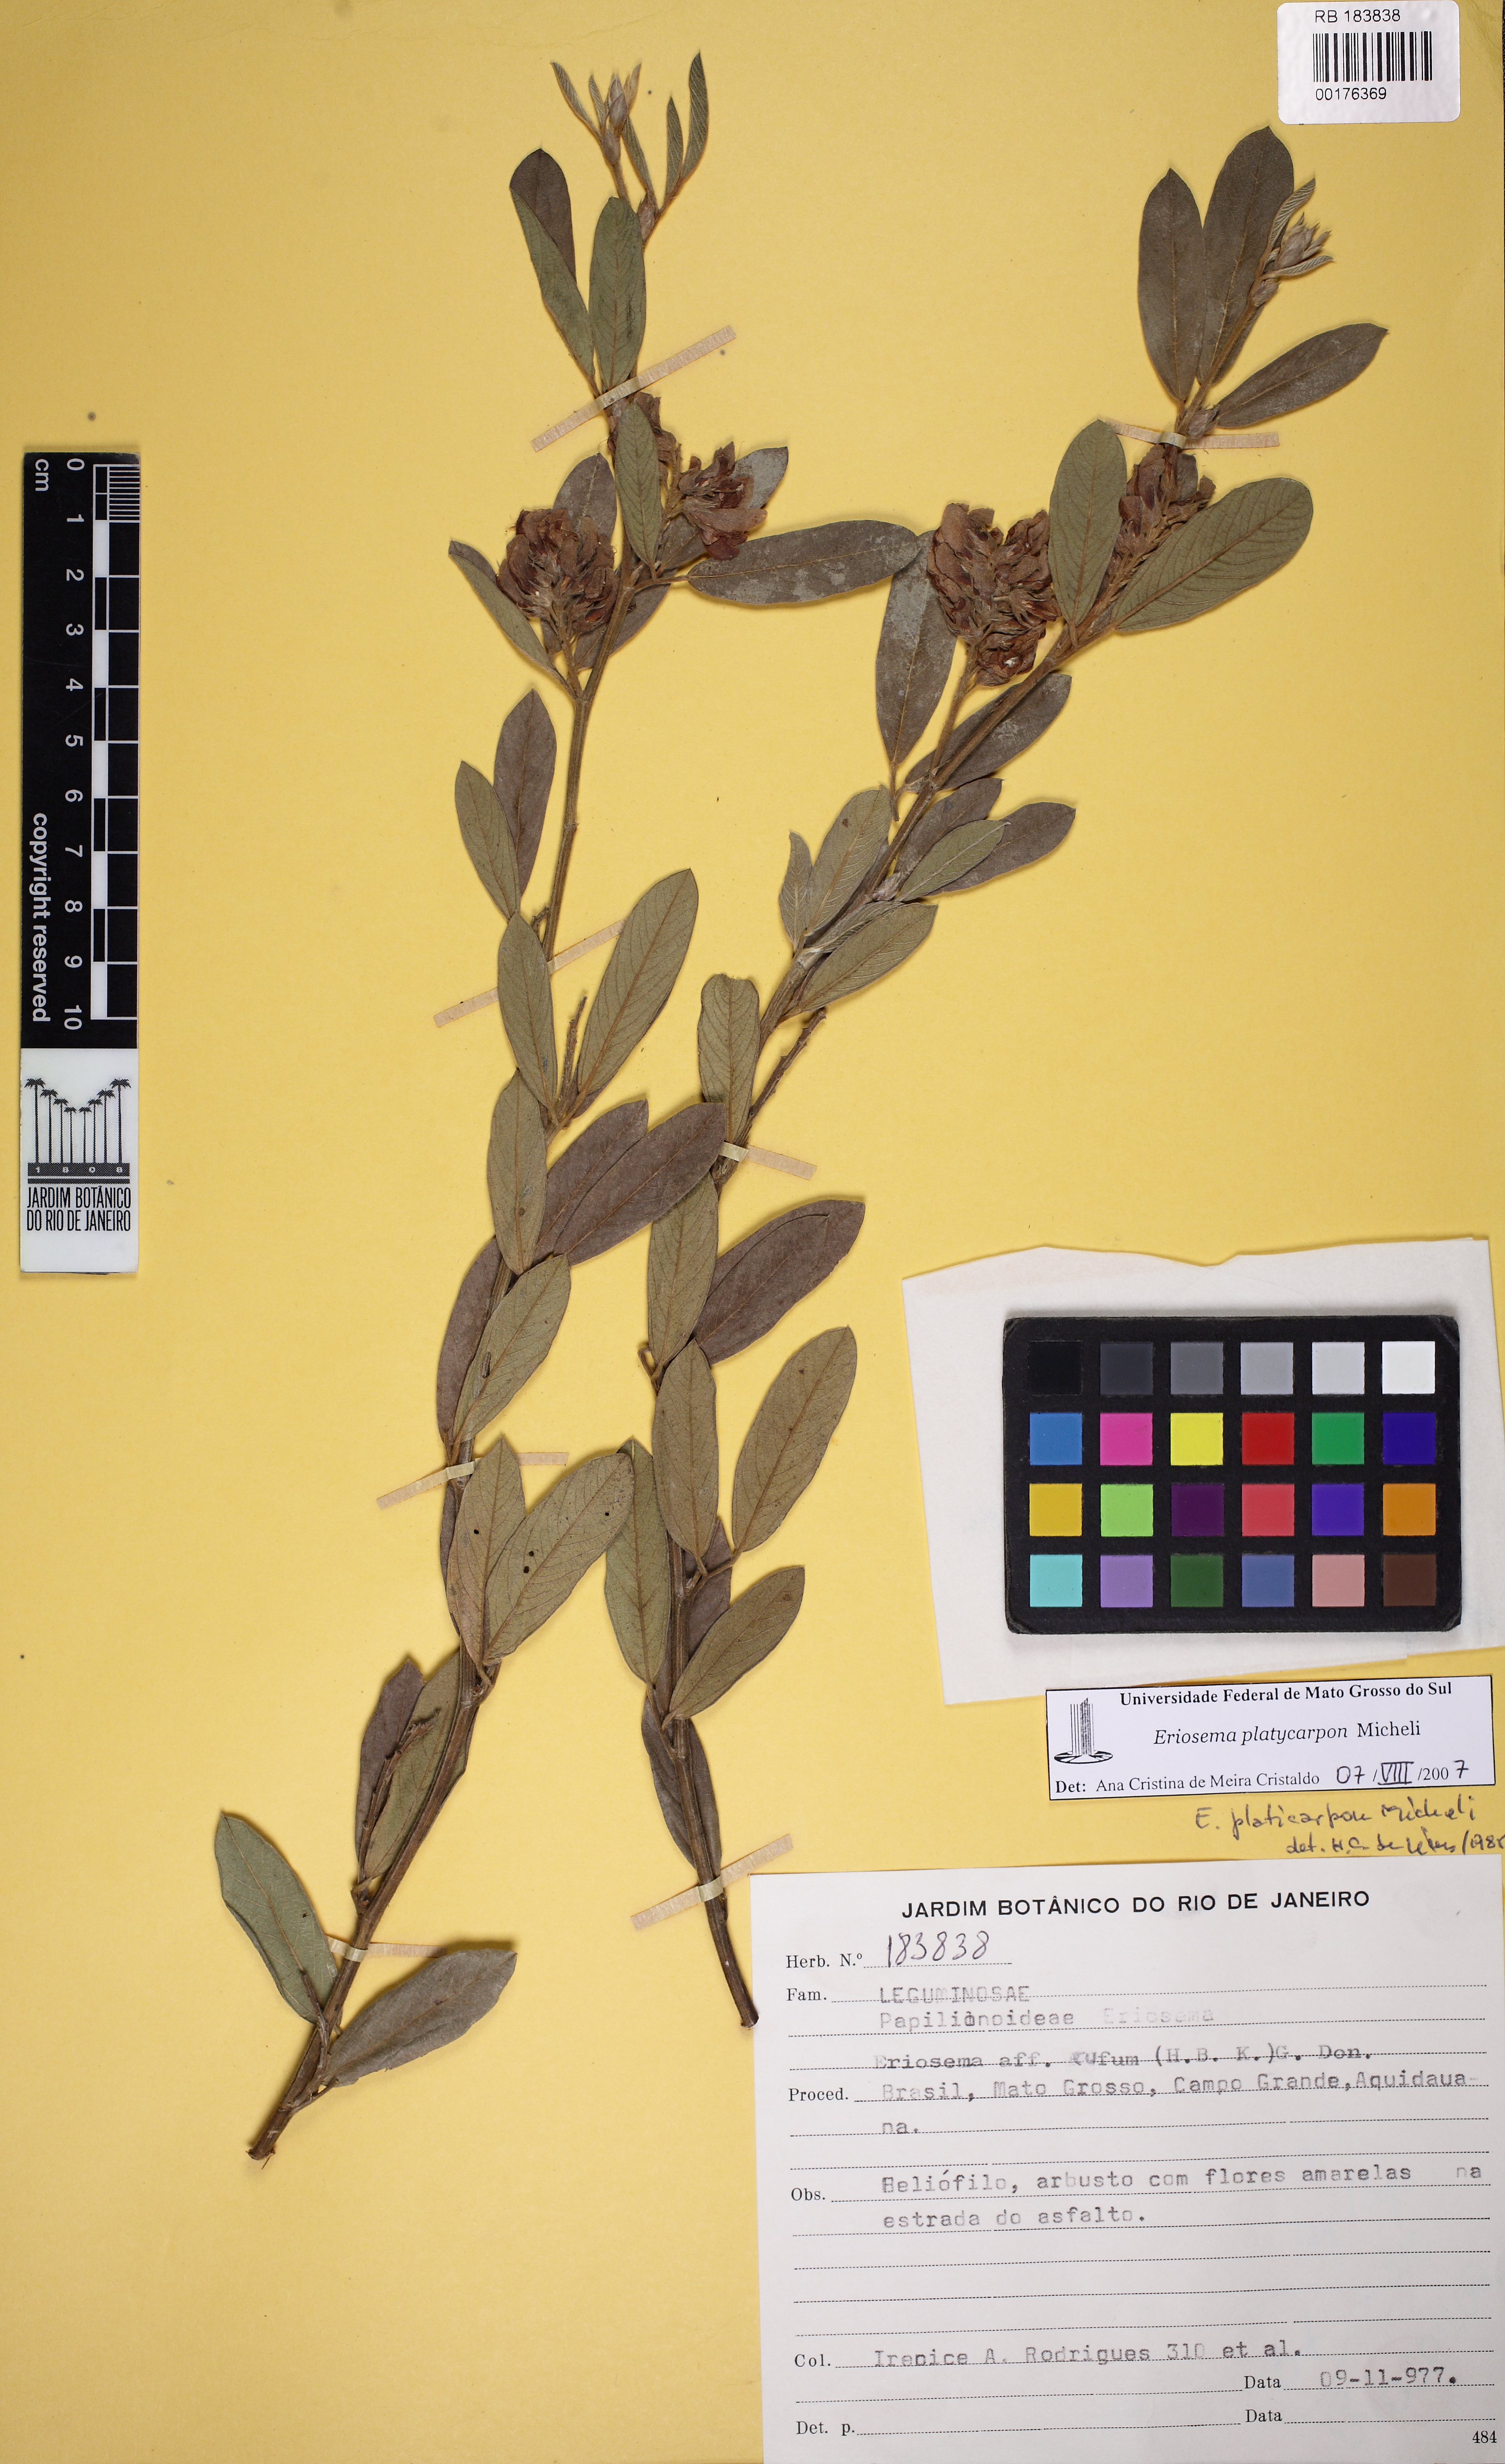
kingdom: Plantae
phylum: Tracheophyta
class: Magnoliopsida
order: Fabales
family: Fabaceae
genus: Eriosema
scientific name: Eriosema platycarpon
